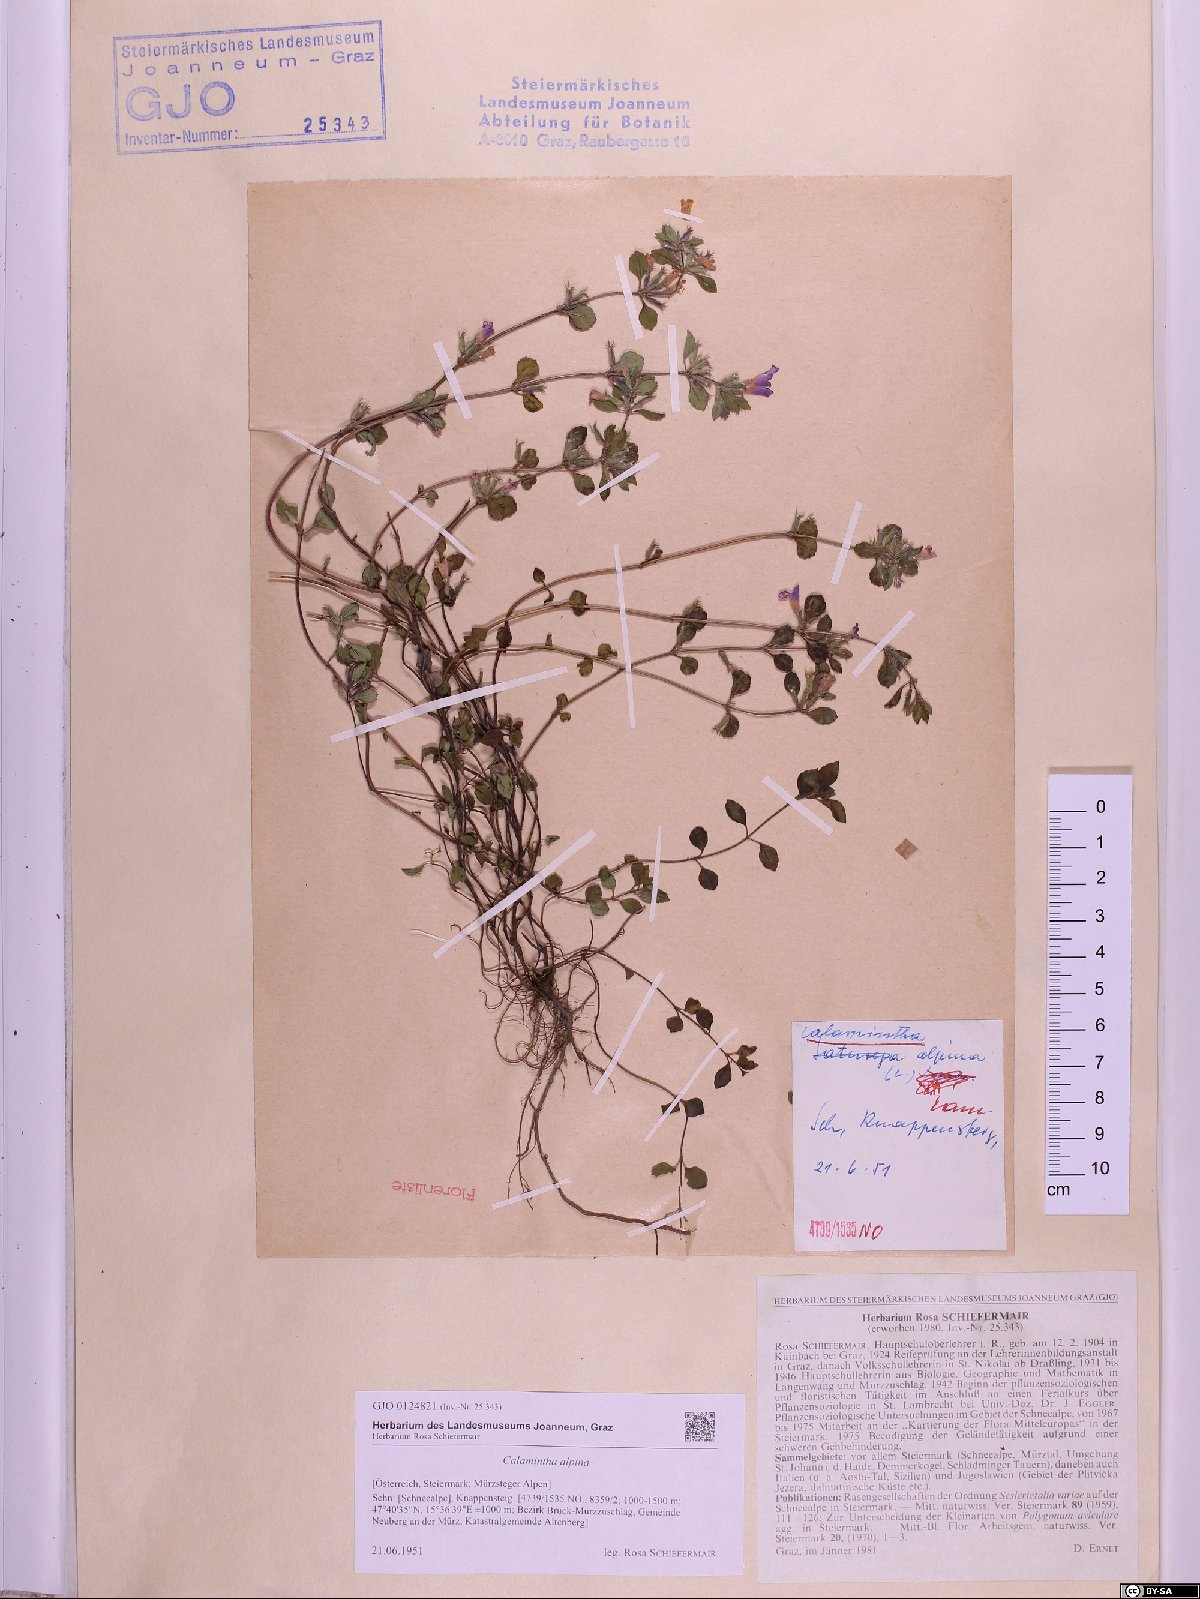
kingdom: Plantae
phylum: Tracheophyta
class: Magnoliopsida
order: Lamiales
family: Lamiaceae
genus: Clinopodium
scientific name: Clinopodium alpinum
